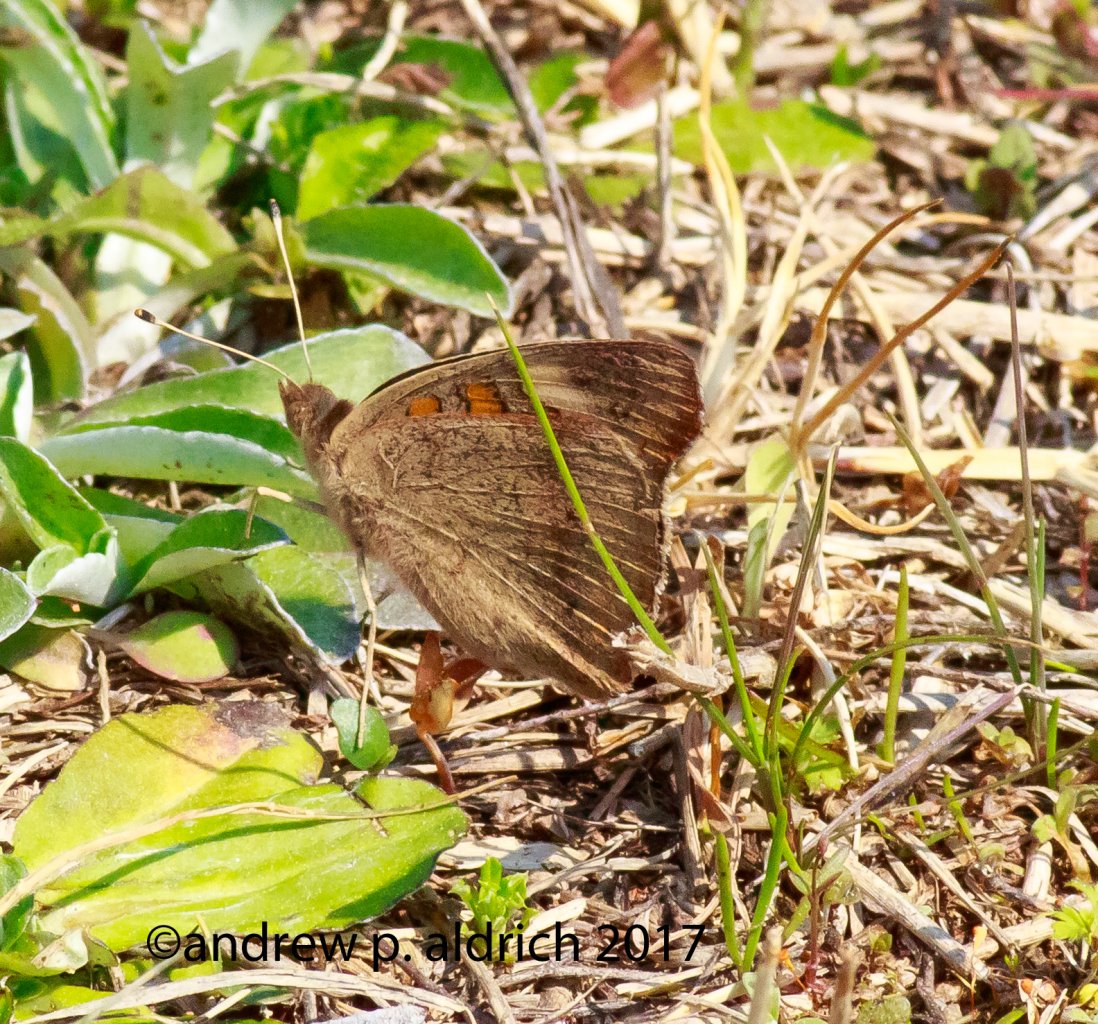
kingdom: Animalia
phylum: Arthropoda
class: Insecta
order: Lepidoptera
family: Nymphalidae
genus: Junonia
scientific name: Junonia coenia
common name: Common Buckeye
